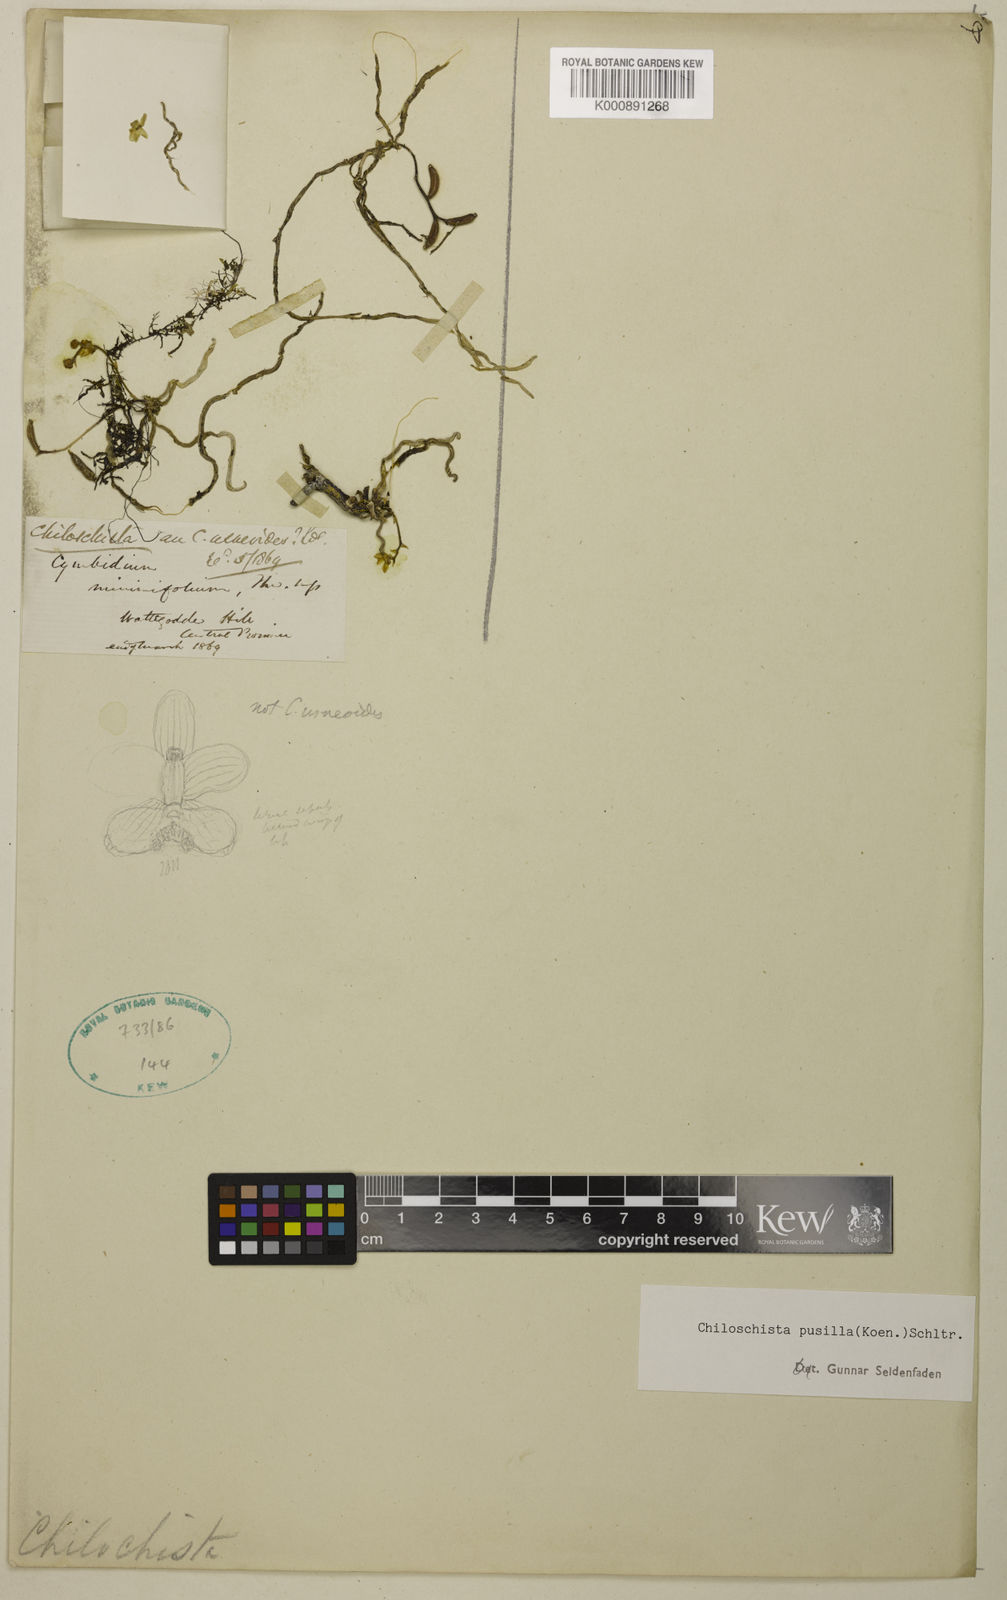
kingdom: Plantae
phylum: Tracheophyta
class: Liliopsida
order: Asparagales
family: Orchidaceae
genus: Taeniophyllum
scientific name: Taeniophyllum pusillum
